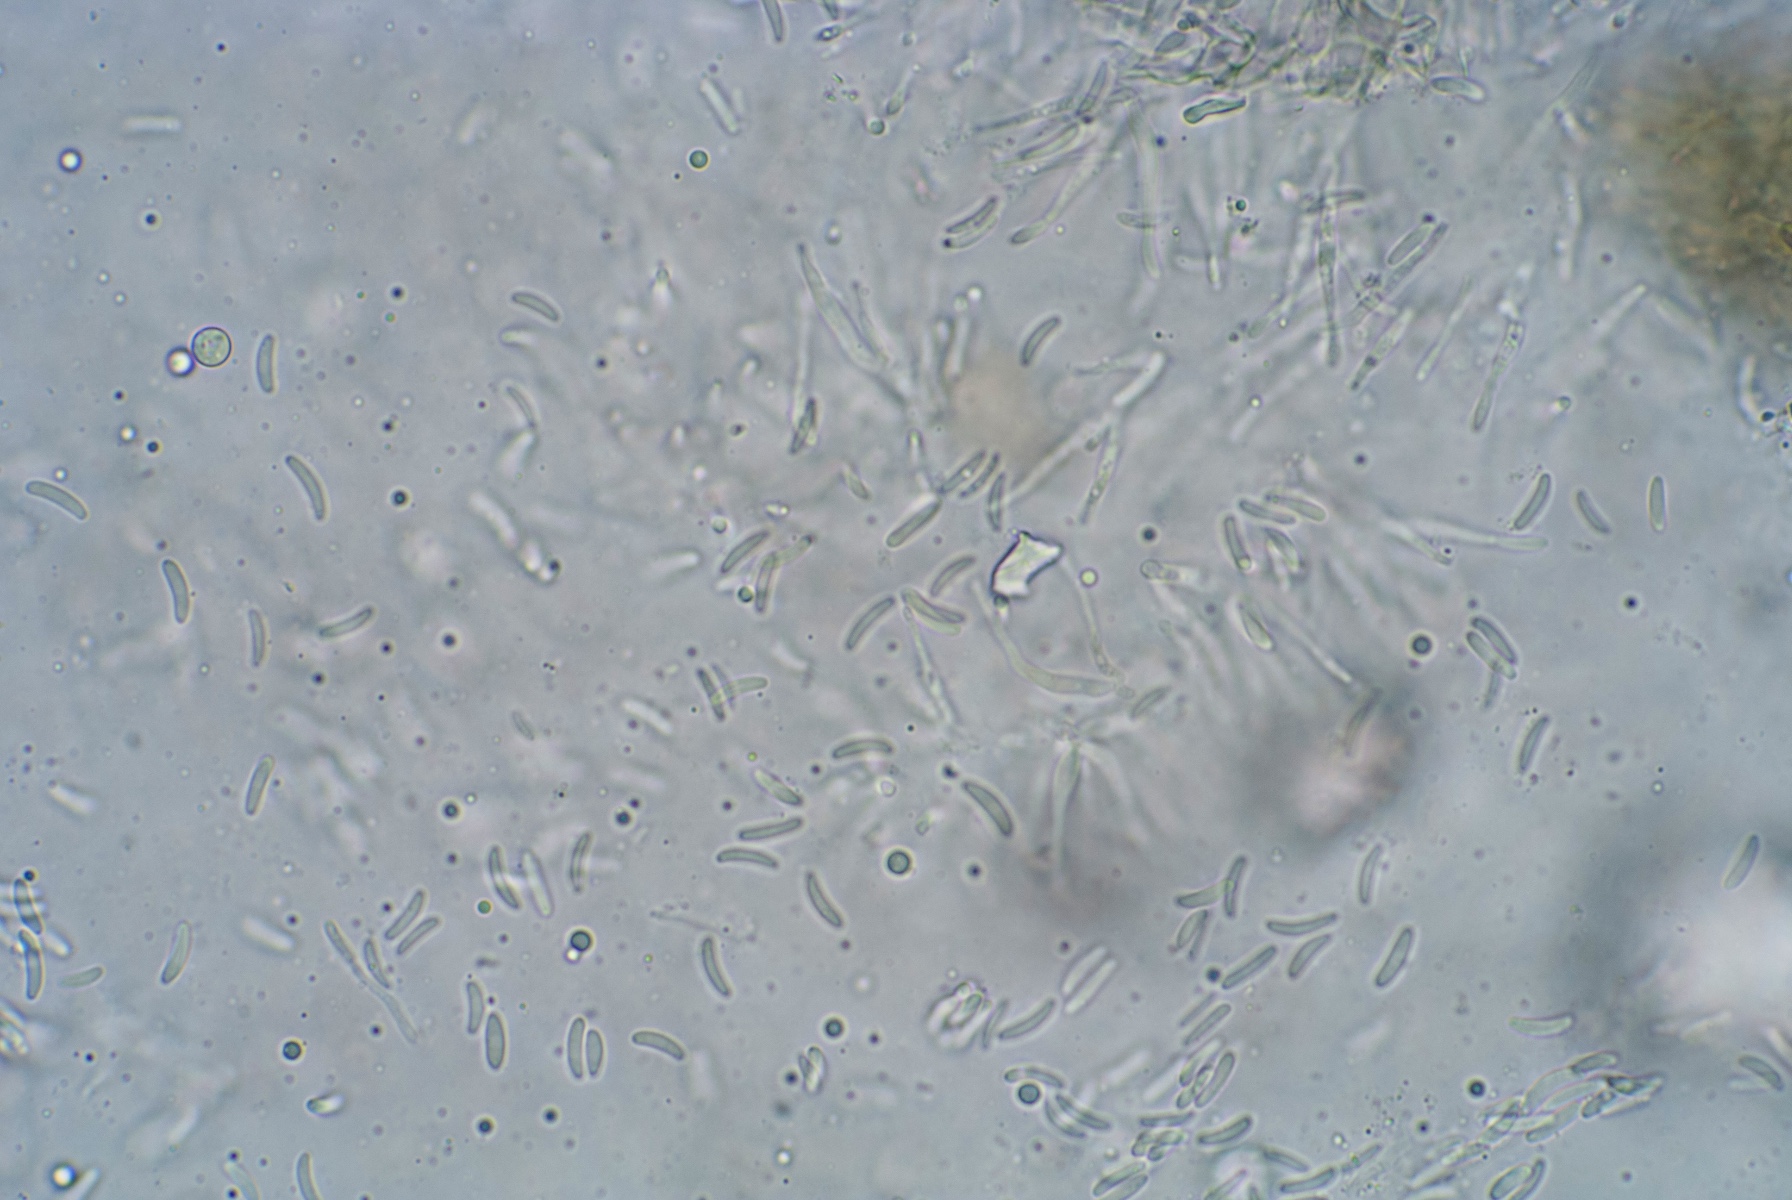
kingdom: Fungi
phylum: Ascomycota
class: Sordariomycetes
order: Diaporthales
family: Valsaceae
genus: Amphiporthe
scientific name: Amphiporthe tiliae
